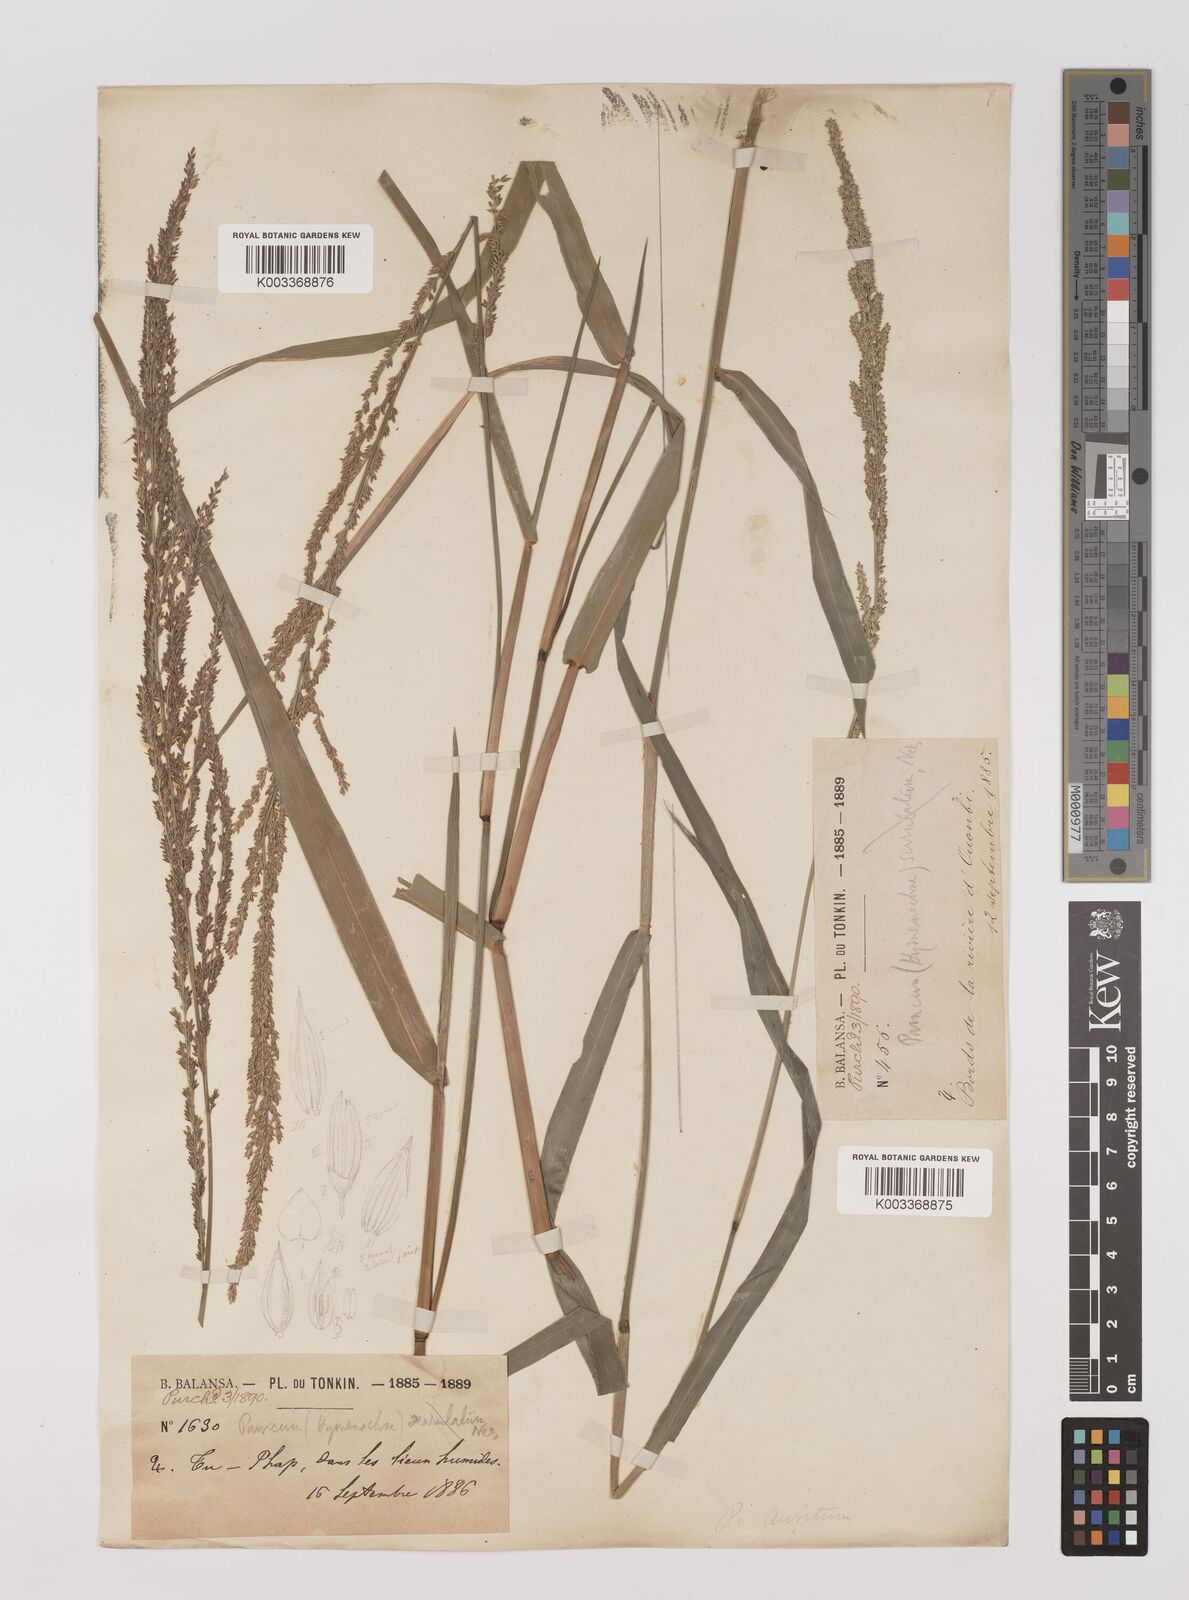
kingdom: Plantae
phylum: Tracheophyta
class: Liliopsida
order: Poales
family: Poaceae
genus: Hymenachne
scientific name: Hymenachne amplexicaulis
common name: Olive hymenachne
